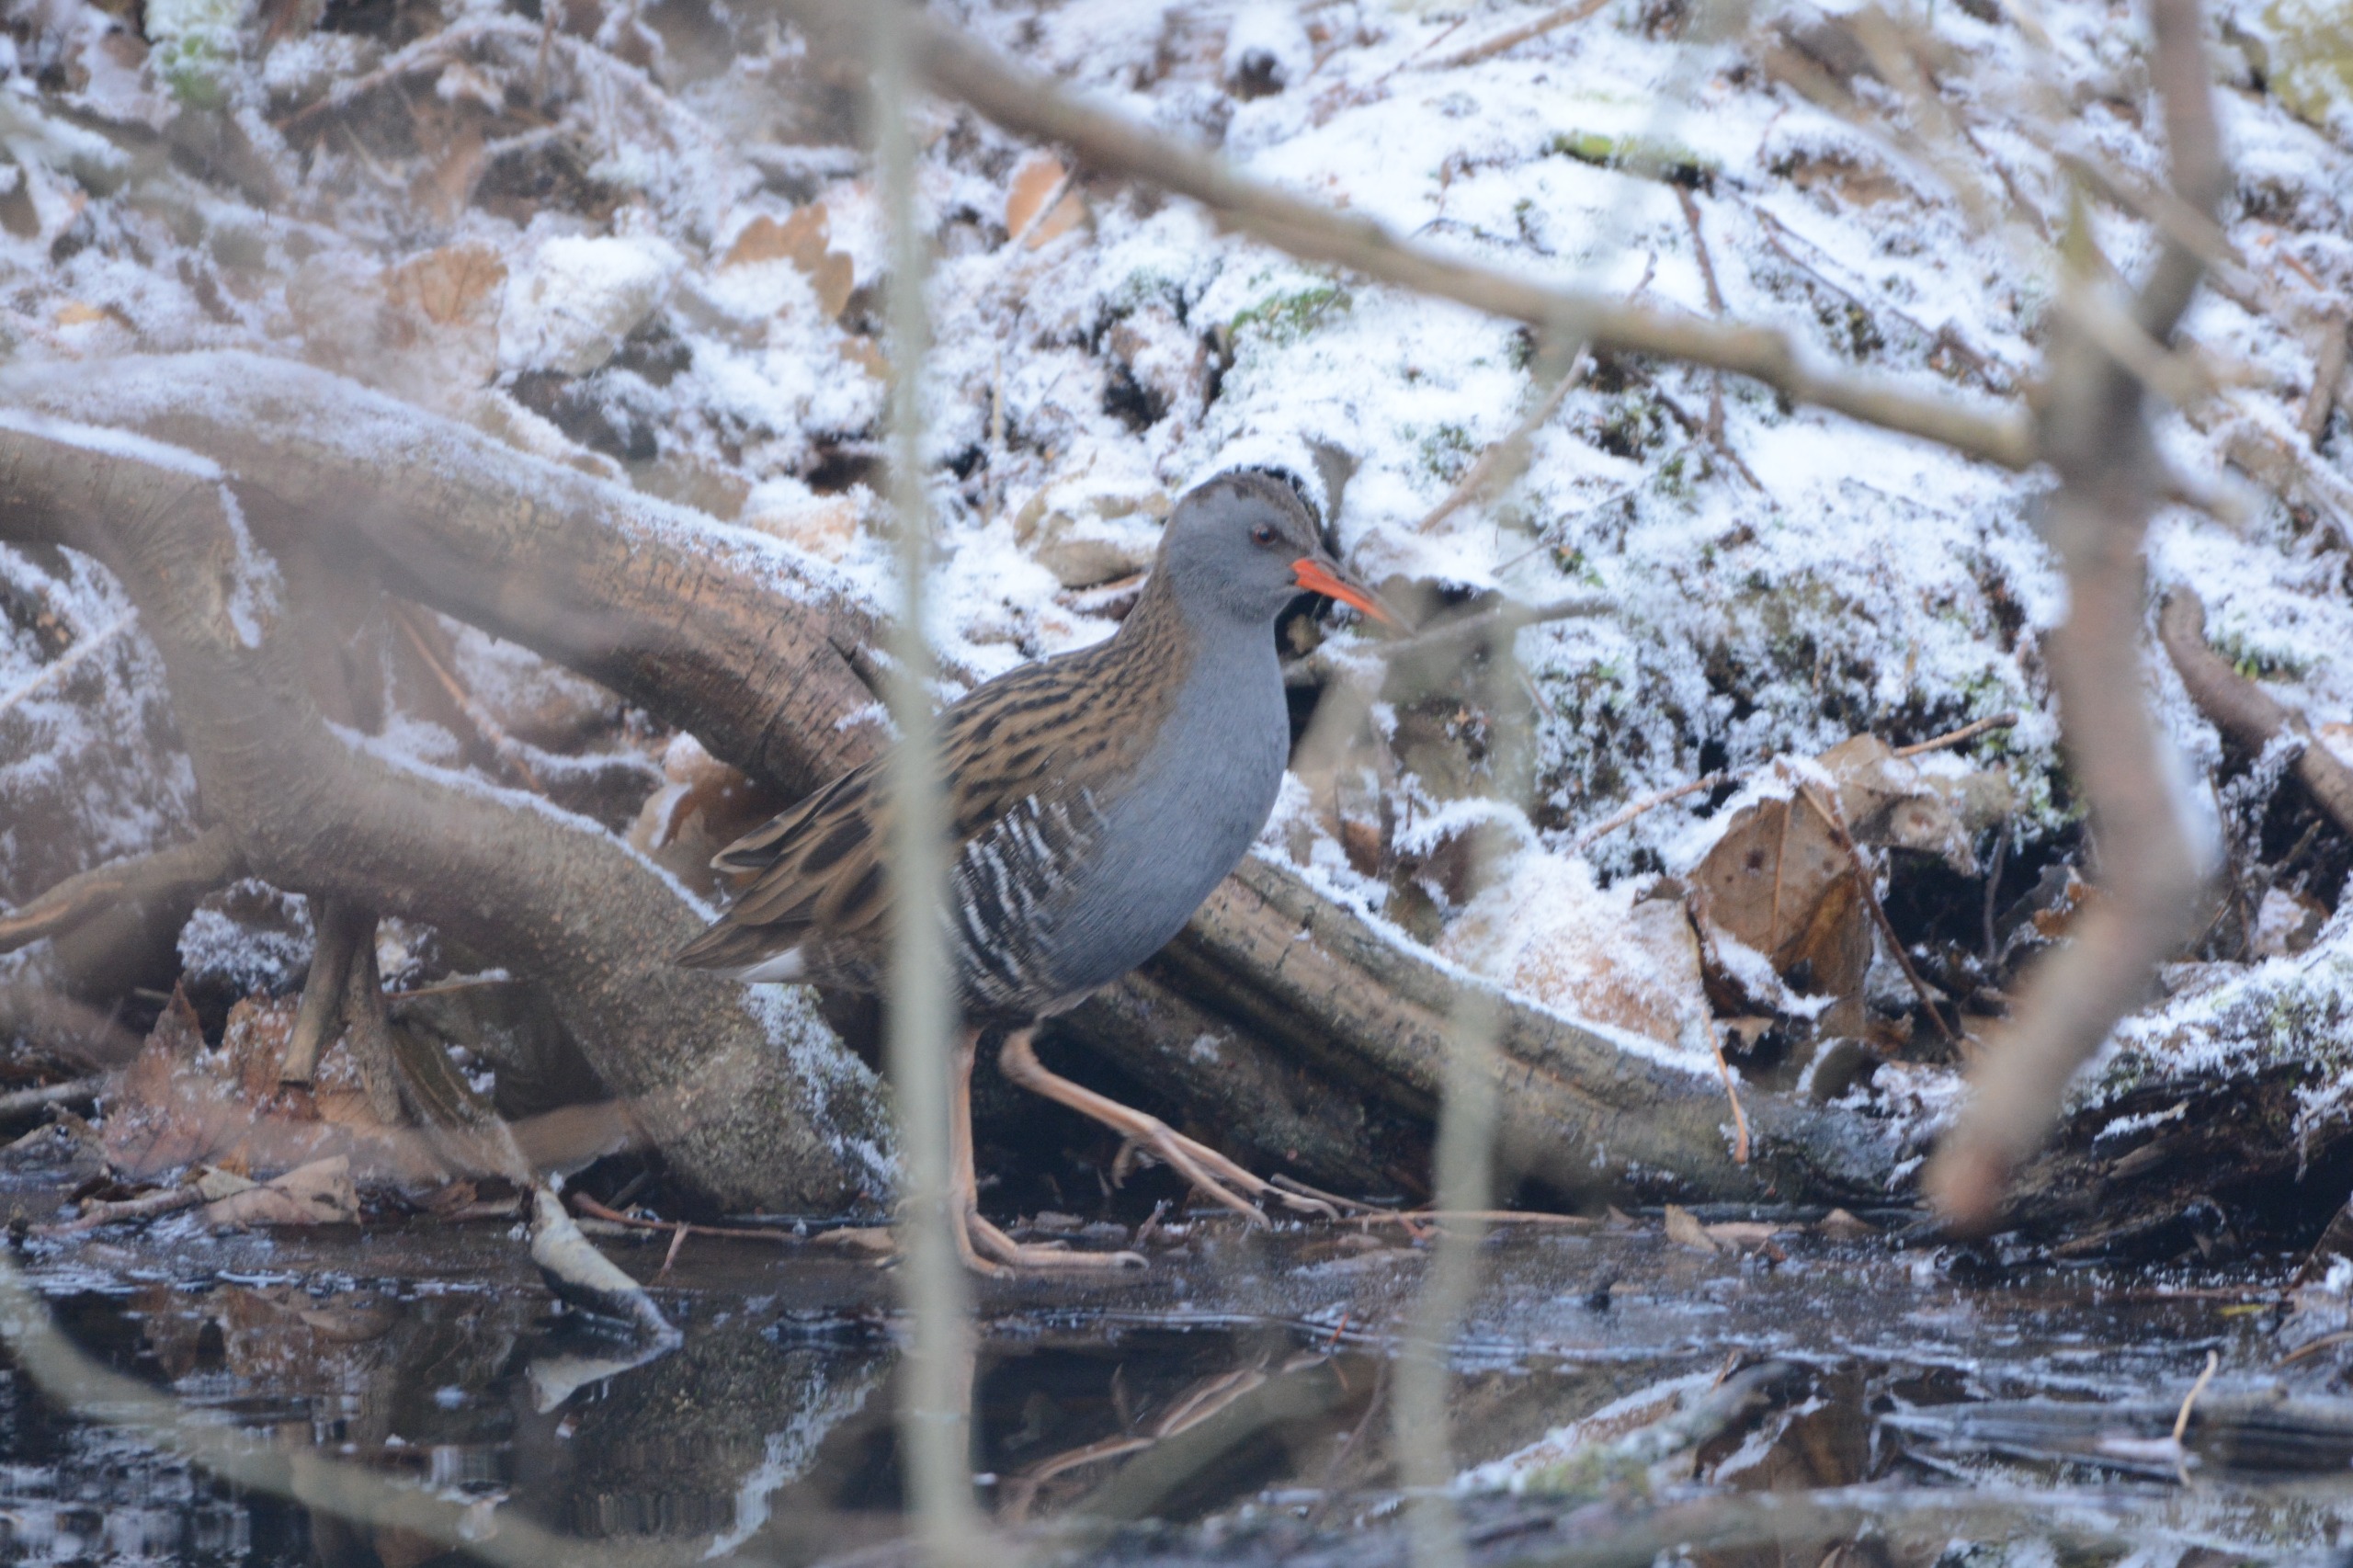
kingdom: Animalia
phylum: Chordata
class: Aves
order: Gruiformes
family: Rallidae
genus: Rallus
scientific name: Rallus aquaticus
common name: Vandrikse
